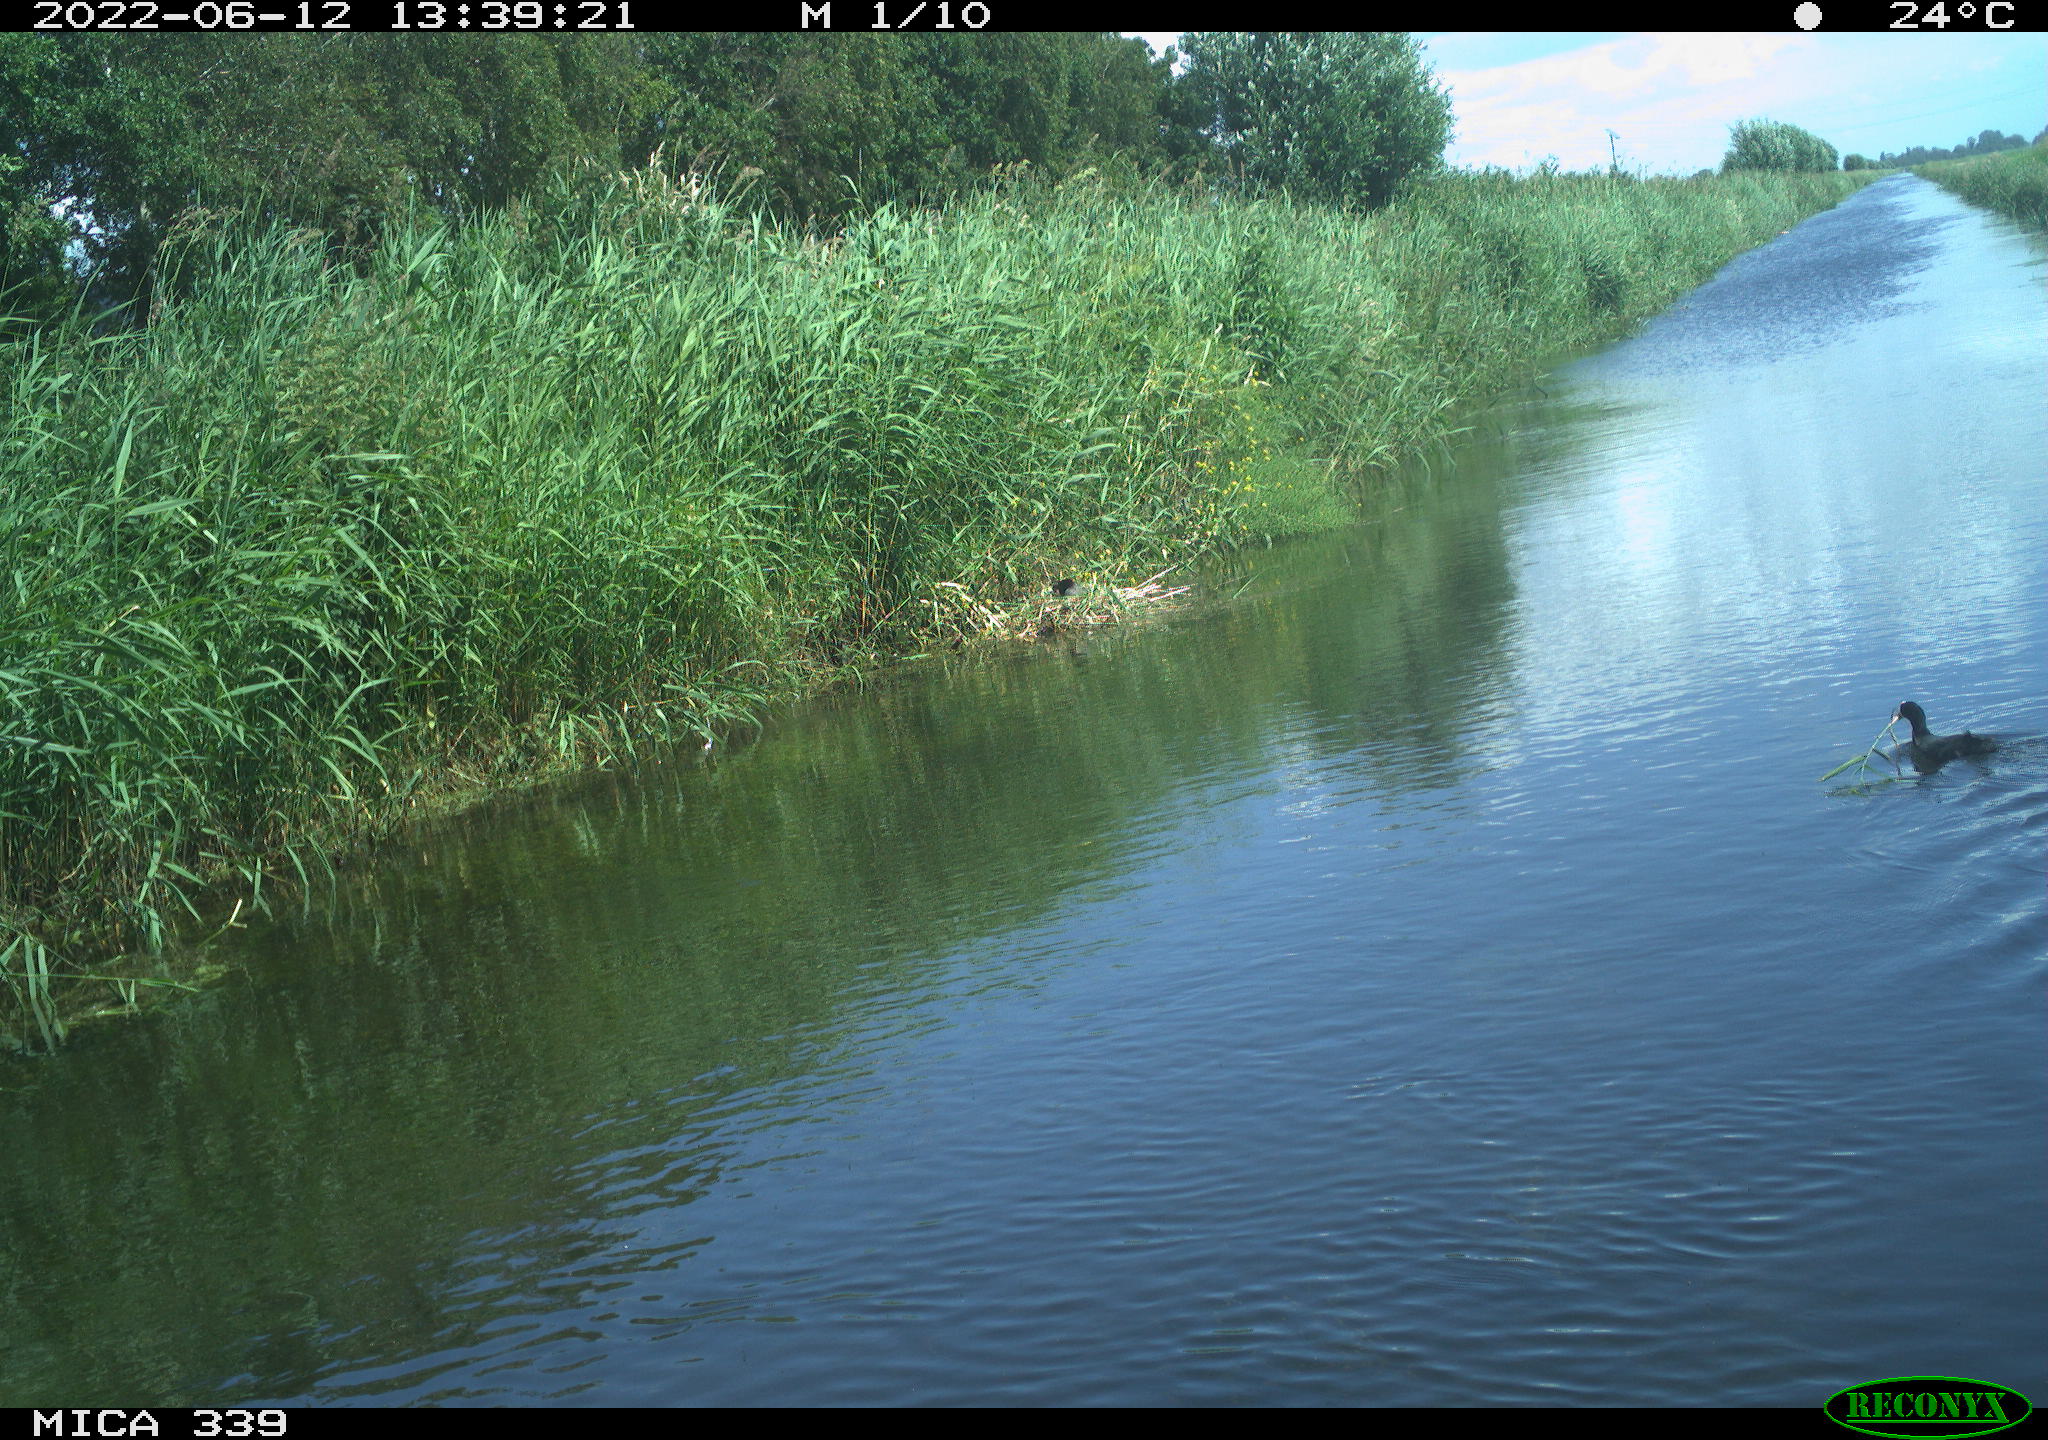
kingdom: Animalia
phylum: Chordata
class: Aves
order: Gruiformes
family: Rallidae
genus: Fulica
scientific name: Fulica atra
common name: Eurasian coot
